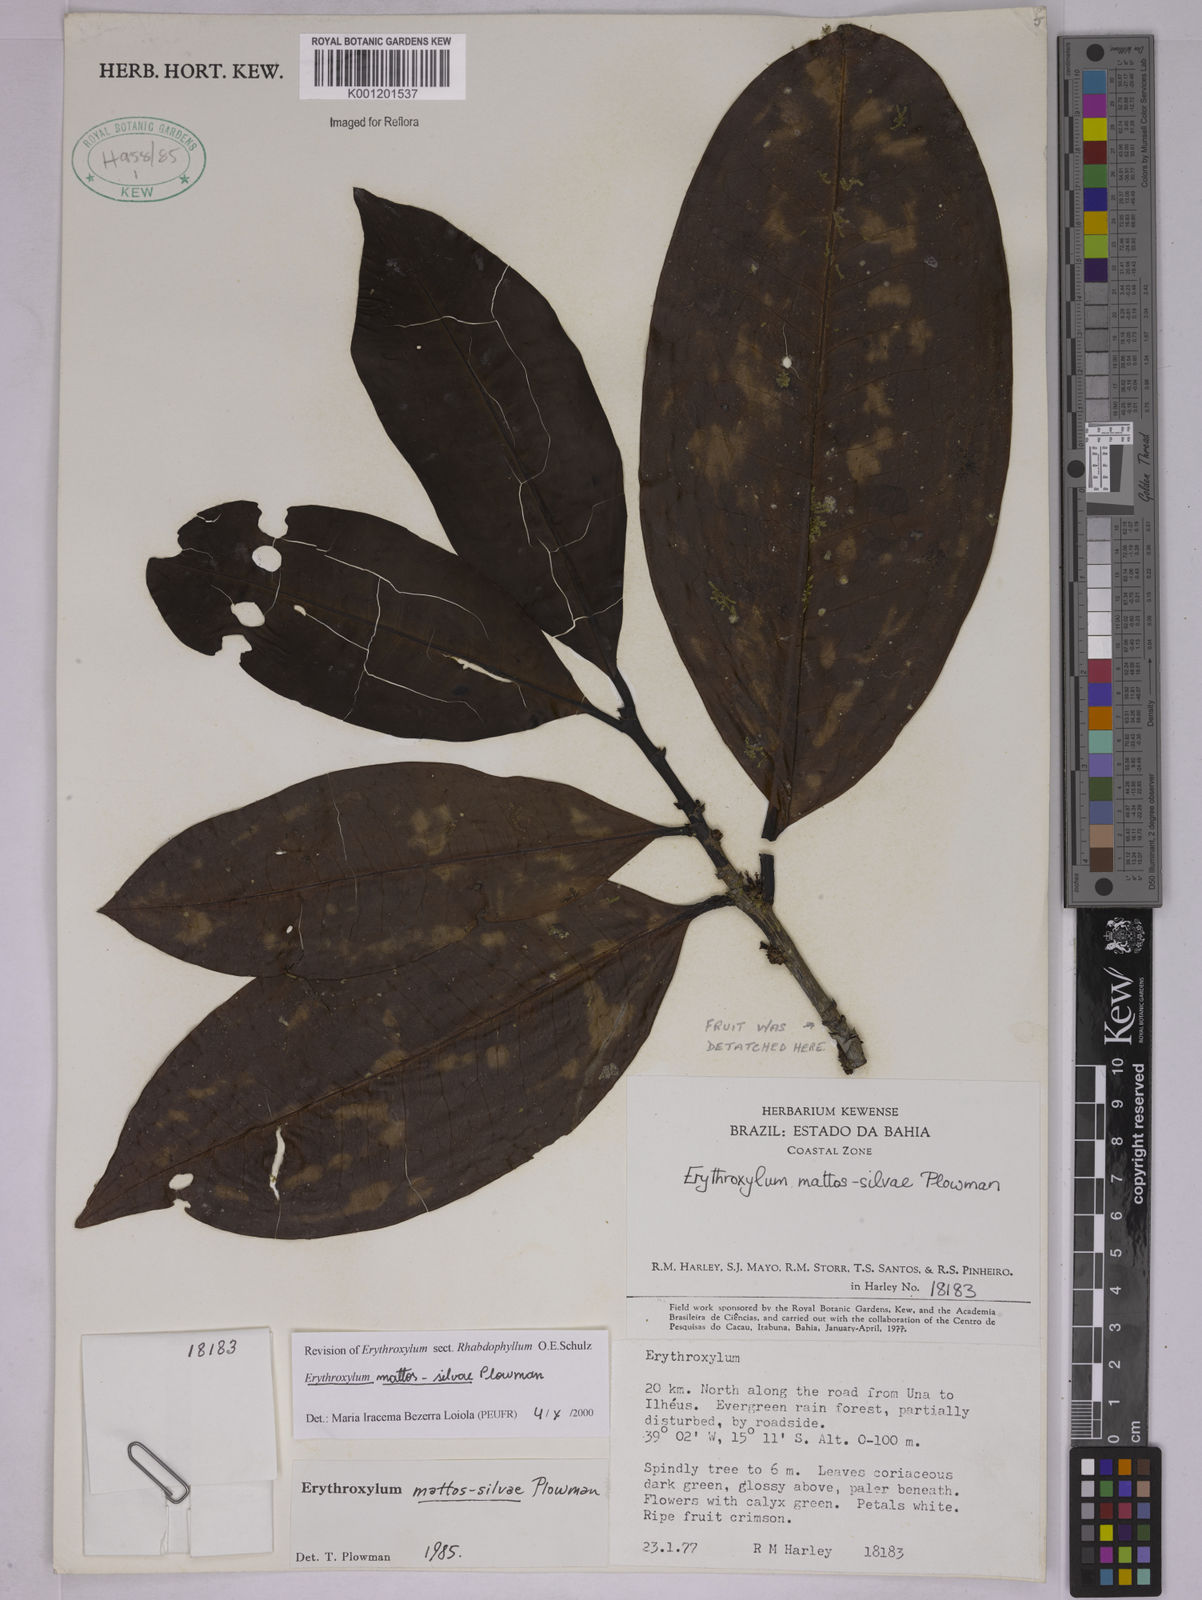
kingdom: Plantae
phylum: Tracheophyta
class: Magnoliopsida
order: Malpighiales
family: Erythroxylaceae
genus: Erythroxylum
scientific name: Erythroxylum mattos-silvae
